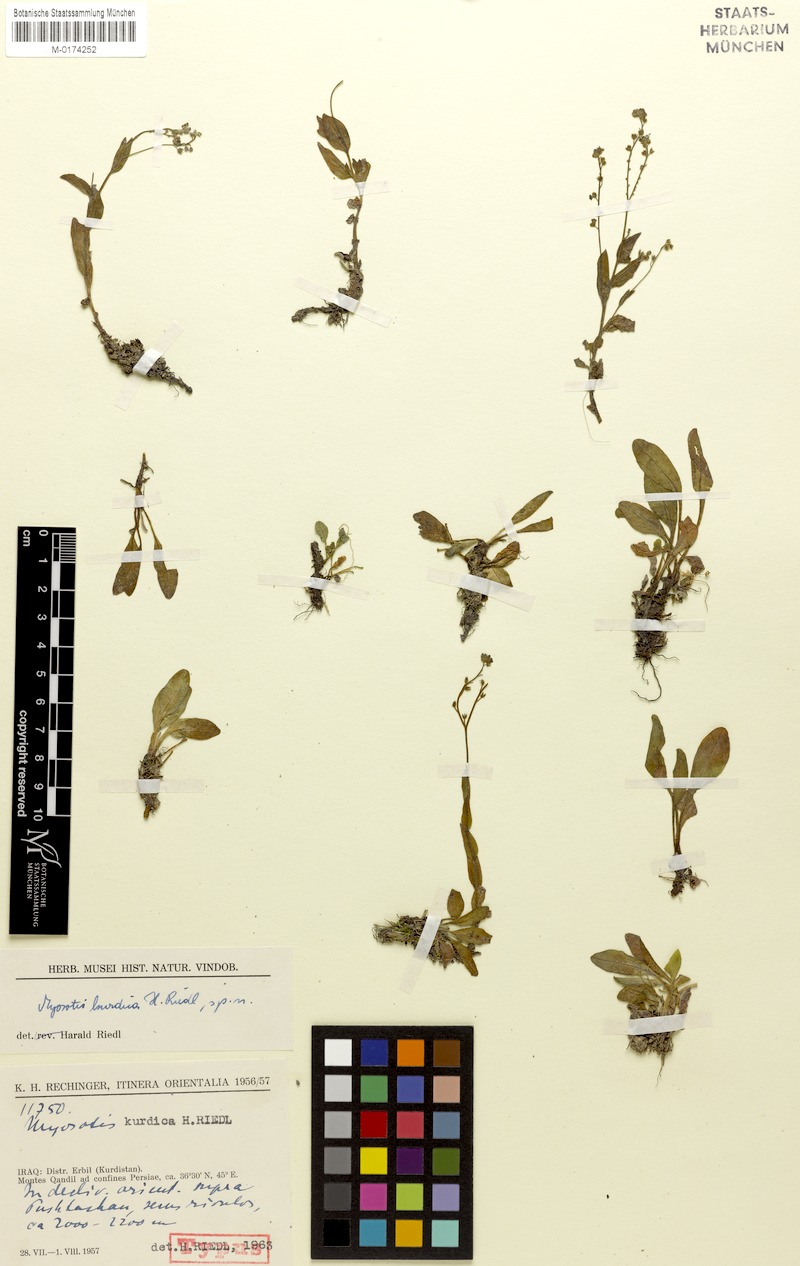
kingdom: Plantae
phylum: Tracheophyta
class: Magnoliopsida
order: Boraginales
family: Boraginaceae
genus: Myosotis
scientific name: Myosotis lithospermifolia
